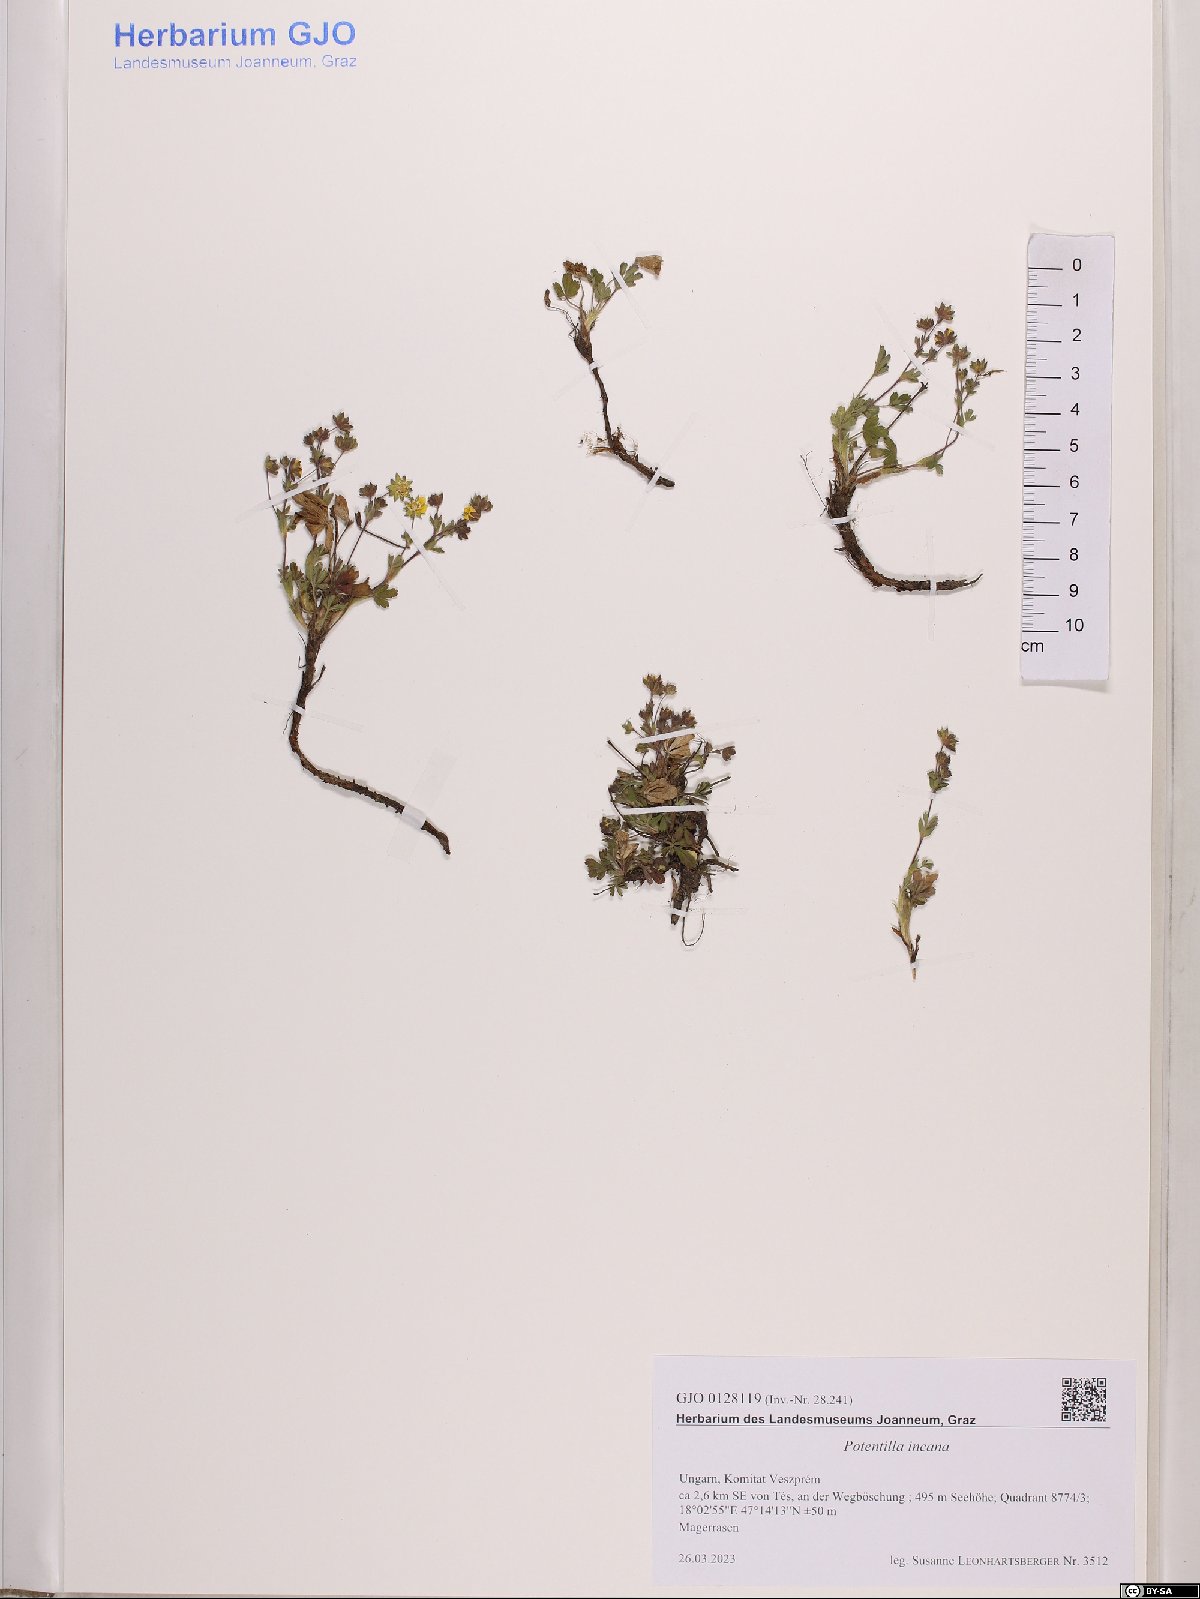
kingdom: Plantae
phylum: Tracheophyta
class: Magnoliopsida
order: Rosales
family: Rosaceae
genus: Potentilla
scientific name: Potentilla cinerea
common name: Ashy cinquefoil
